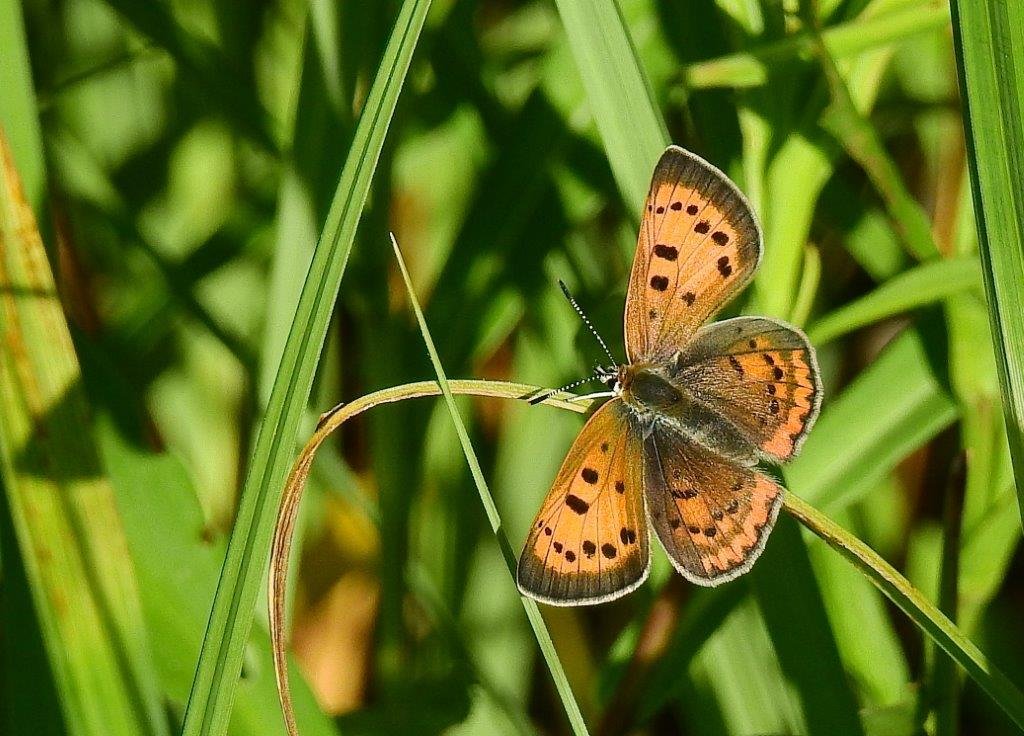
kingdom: Animalia
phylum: Arthropoda
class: Insecta
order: Lepidoptera
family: Sesiidae
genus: Sesia
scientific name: Sesia Lycaena helloides
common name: Purplish Copper
